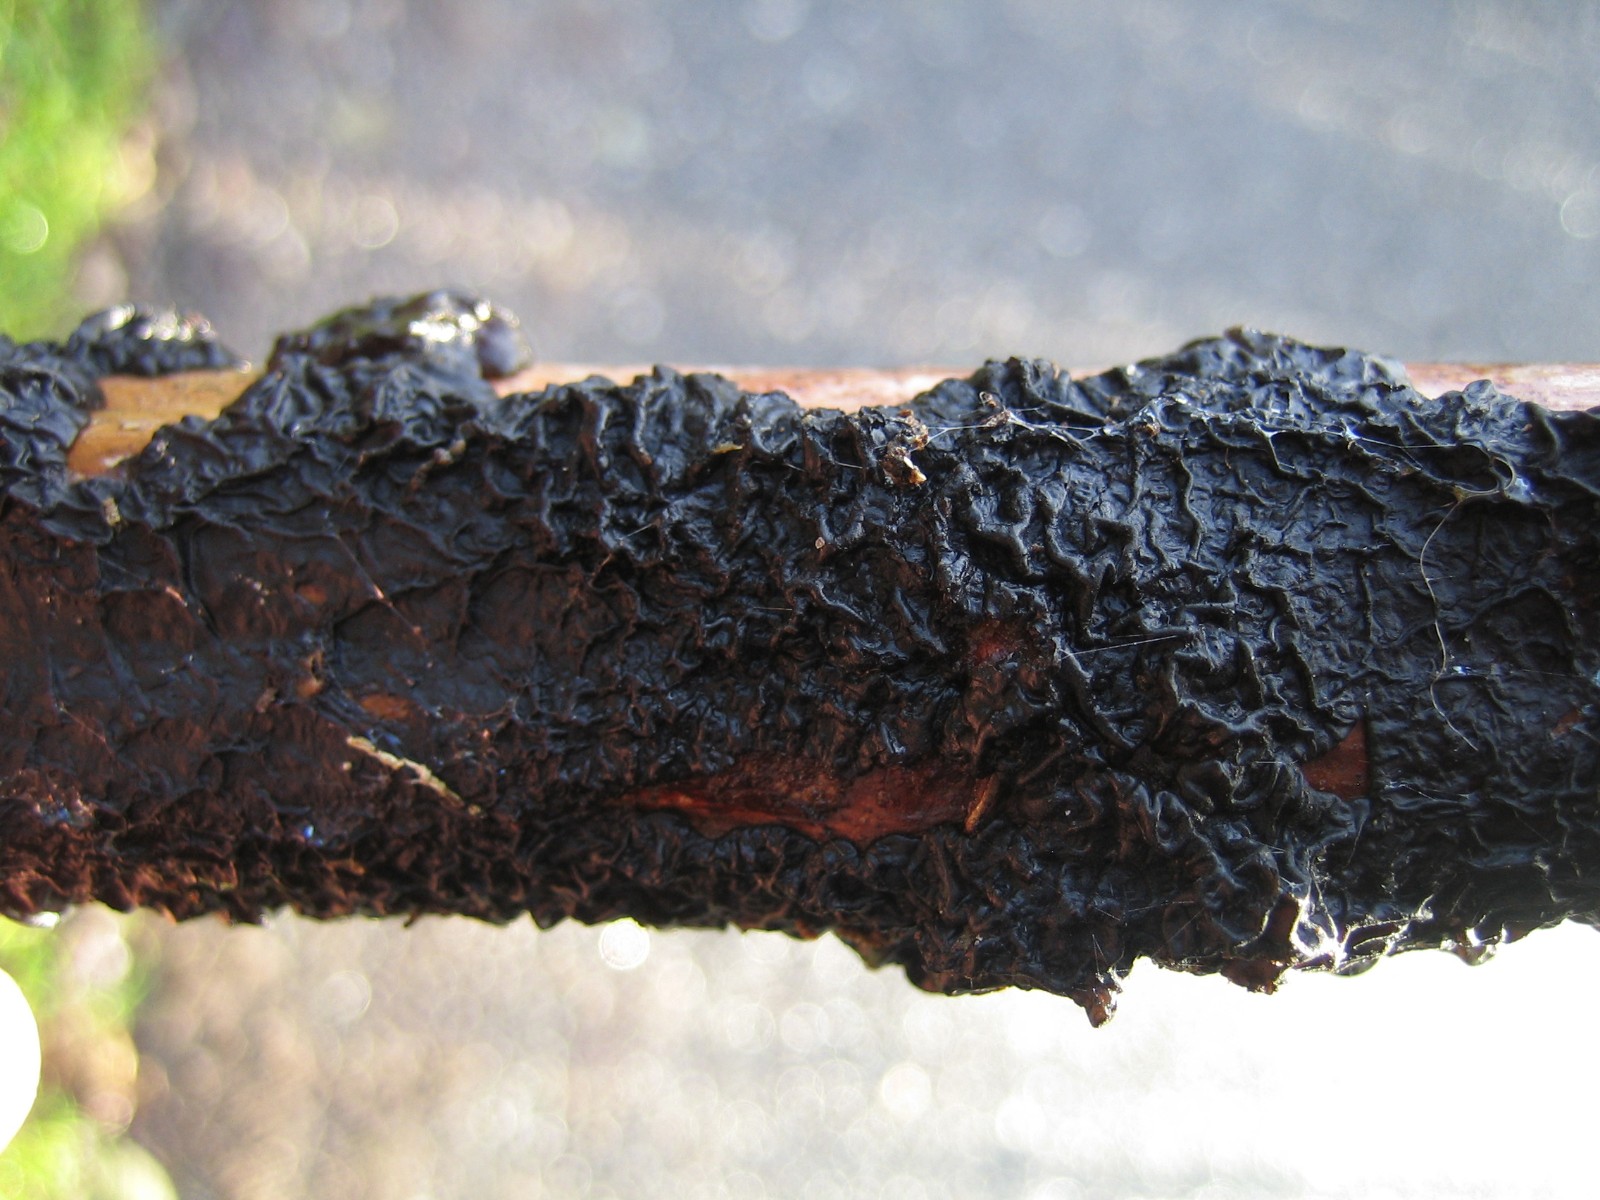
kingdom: Fungi
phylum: Basidiomycota
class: Agaricomycetes
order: Auriculariales
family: Auriculariaceae
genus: Exidia
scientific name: Exidia nigricans
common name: almindelig bævretop
